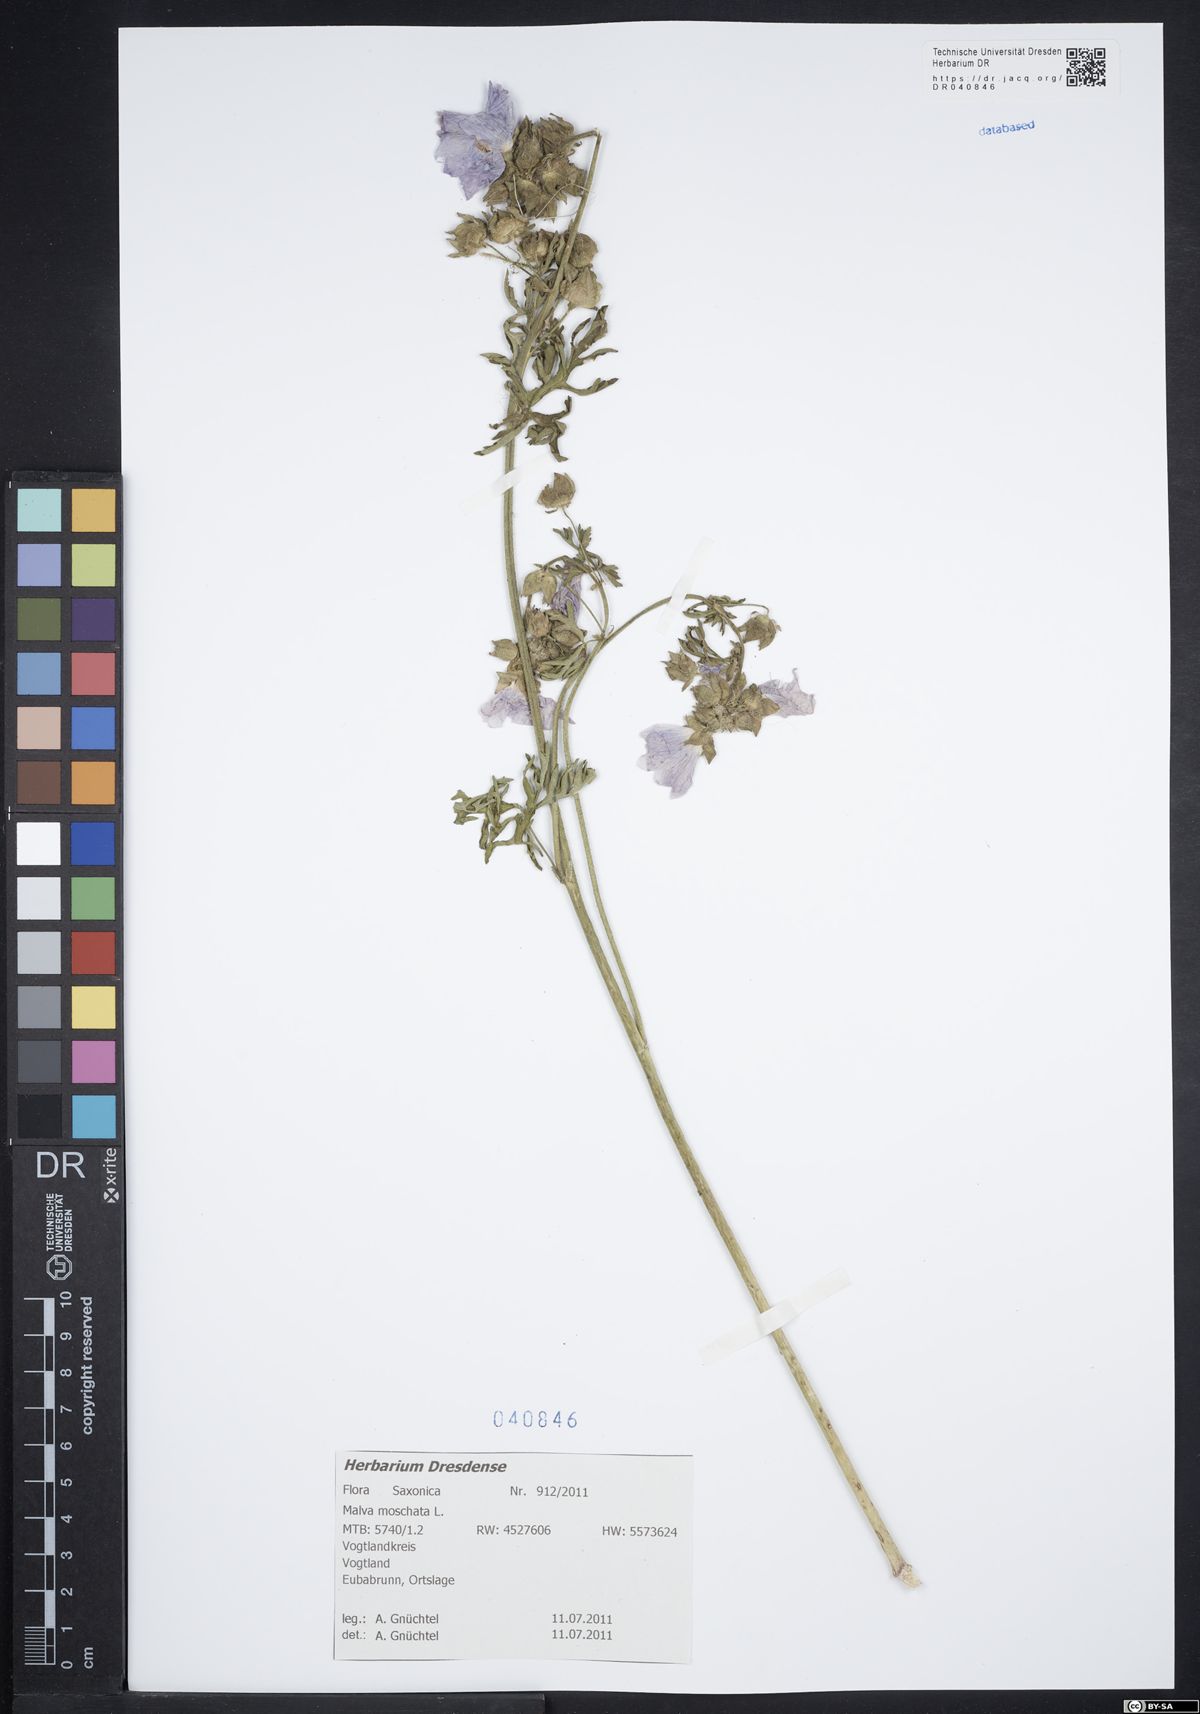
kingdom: Plantae
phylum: Tracheophyta
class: Magnoliopsida
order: Malvales
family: Malvaceae
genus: Malva
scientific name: Malva moschata
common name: Musk mallow
